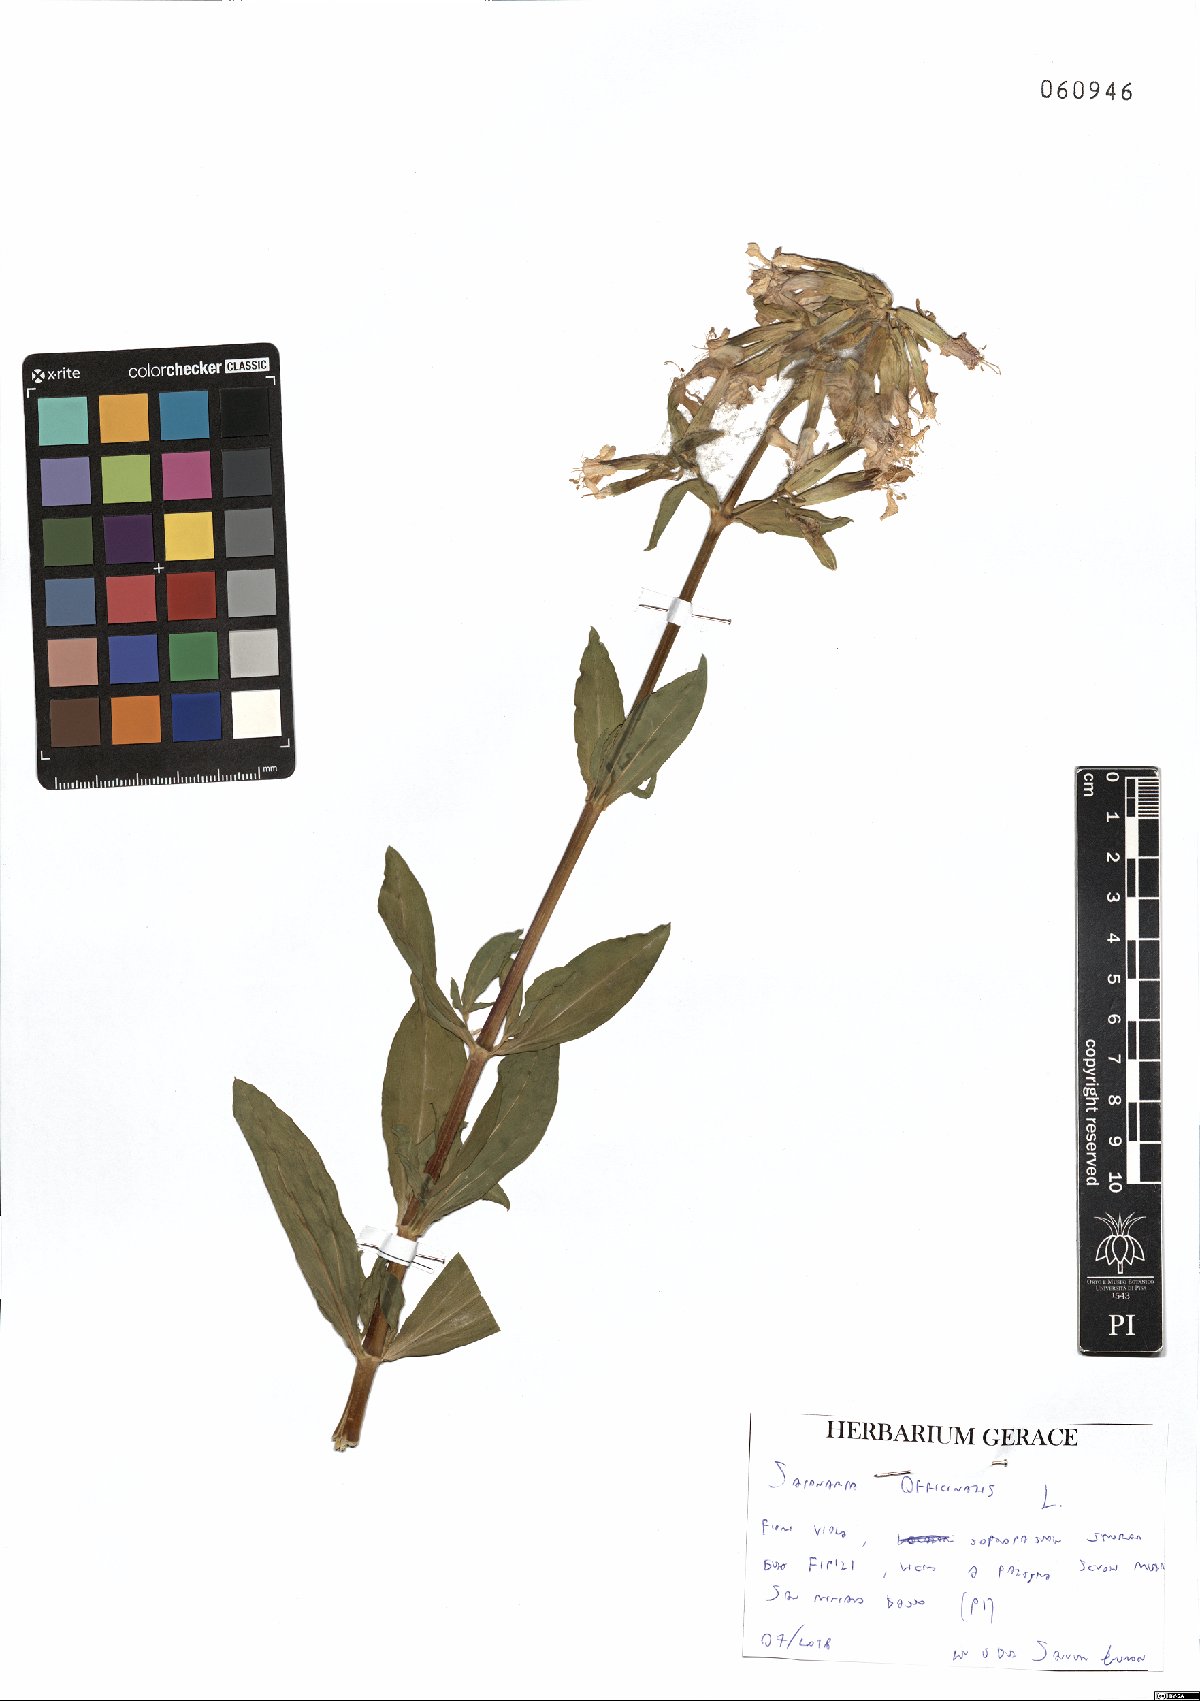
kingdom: Plantae
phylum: Tracheophyta
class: Magnoliopsida
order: Caryophyllales
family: Caryophyllaceae
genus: Saponaria
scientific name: Saponaria officinalis
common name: Soapwort
